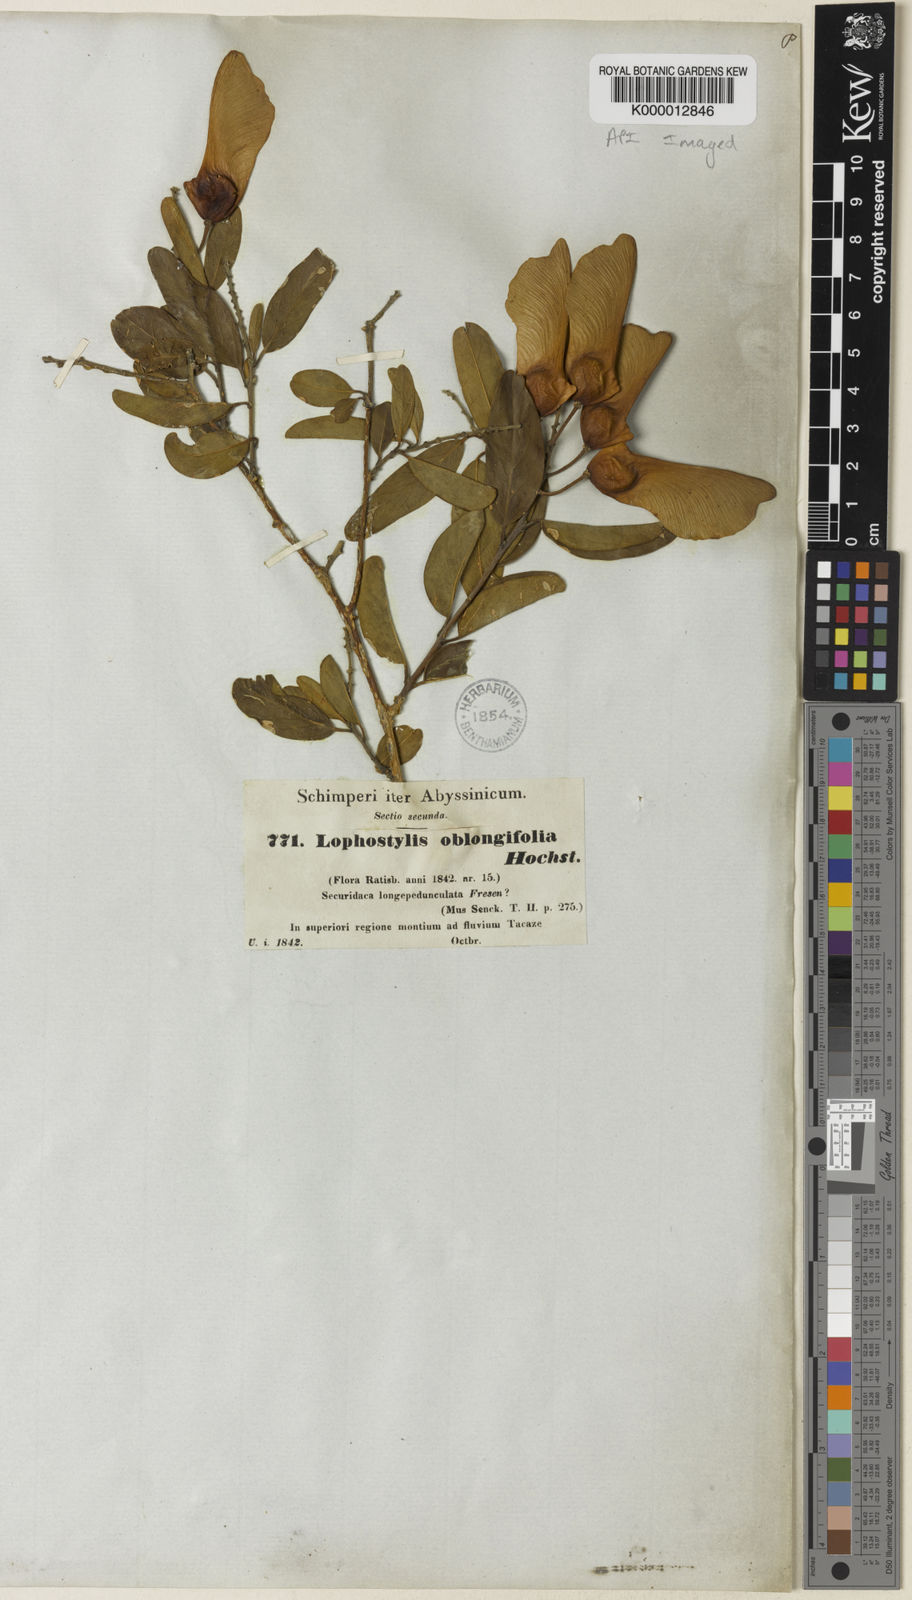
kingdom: Plantae
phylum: Tracheophyta
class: Magnoliopsida
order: Fabales
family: Polygalaceae
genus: Securidaca
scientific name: Securidaca
